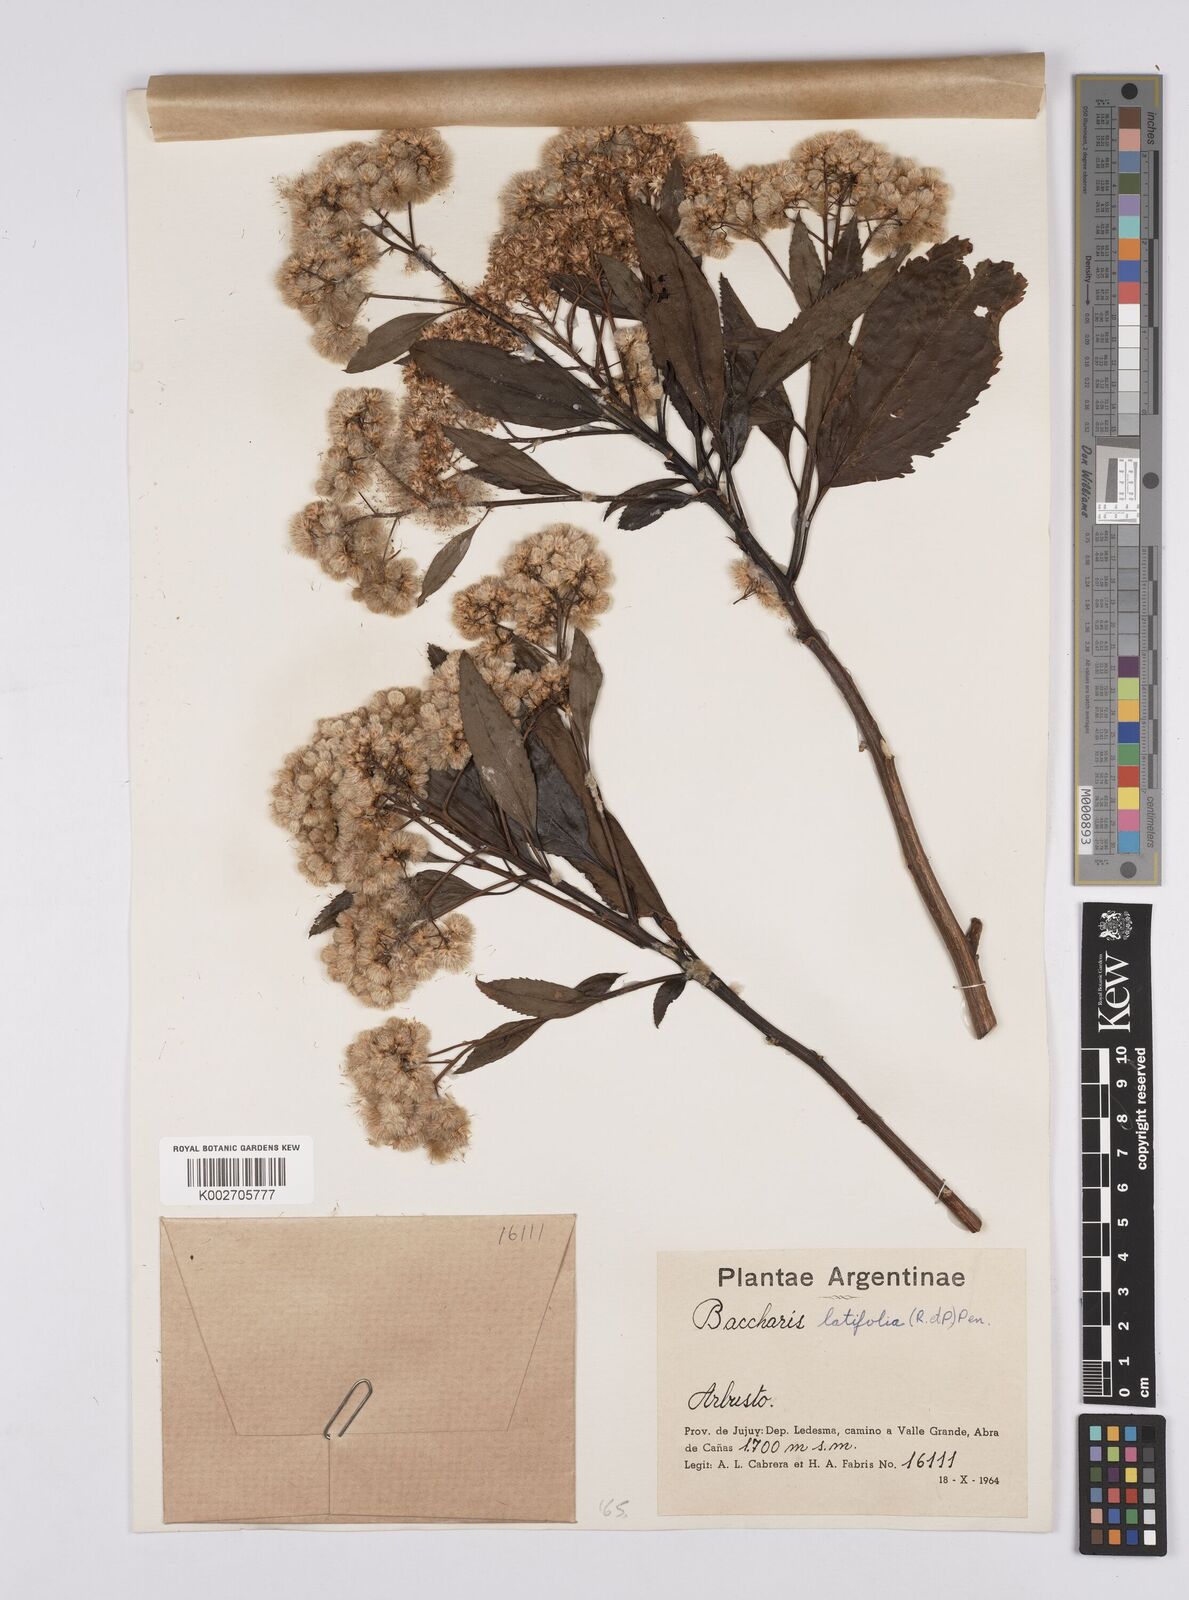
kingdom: Plantae
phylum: Tracheophyta
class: Magnoliopsida
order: Asterales
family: Asteraceae
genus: Baccharis
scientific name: Baccharis latifolia
